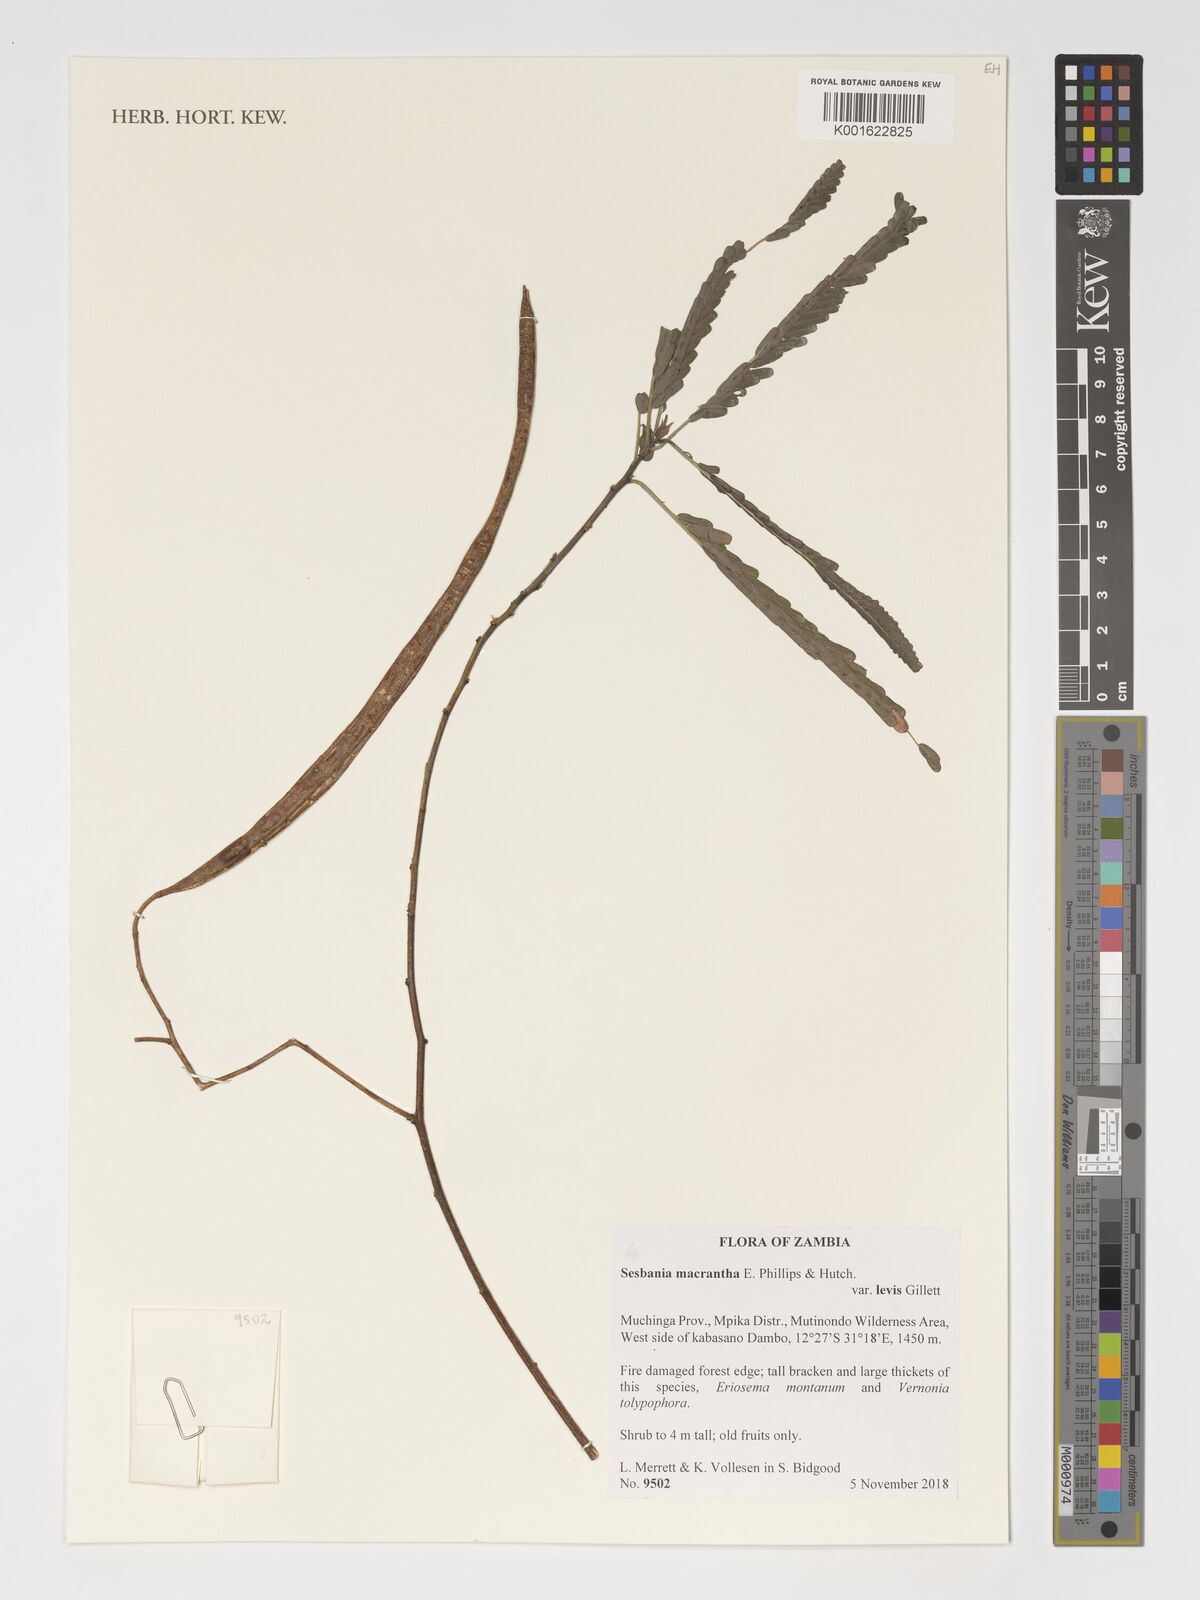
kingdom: Plantae
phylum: Tracheophyta
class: Magnoliopsida
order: Fabales
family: Fabaceae
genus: Sesbania
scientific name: Sesbania macrantha
